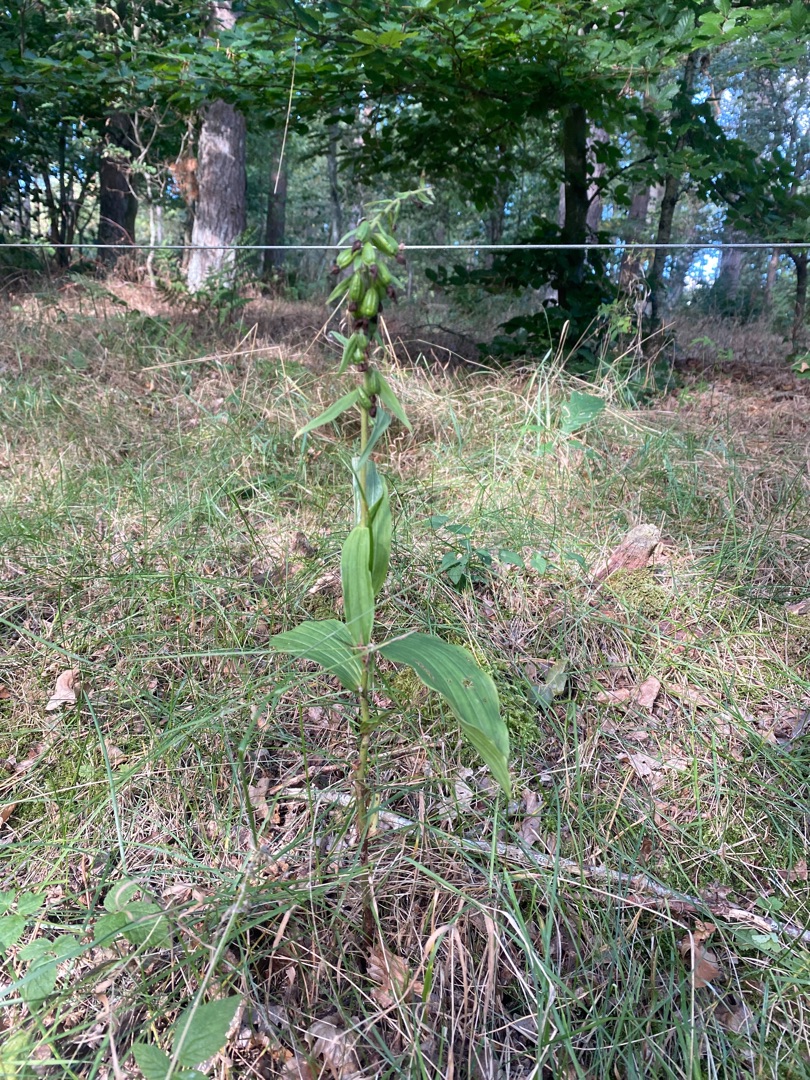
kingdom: Plantae
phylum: Tracheophyta
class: Liliopsida
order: Asparagales
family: Orchidaceae
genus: Epipactis
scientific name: Epipactis helleborine
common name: Skov-hullæbe
